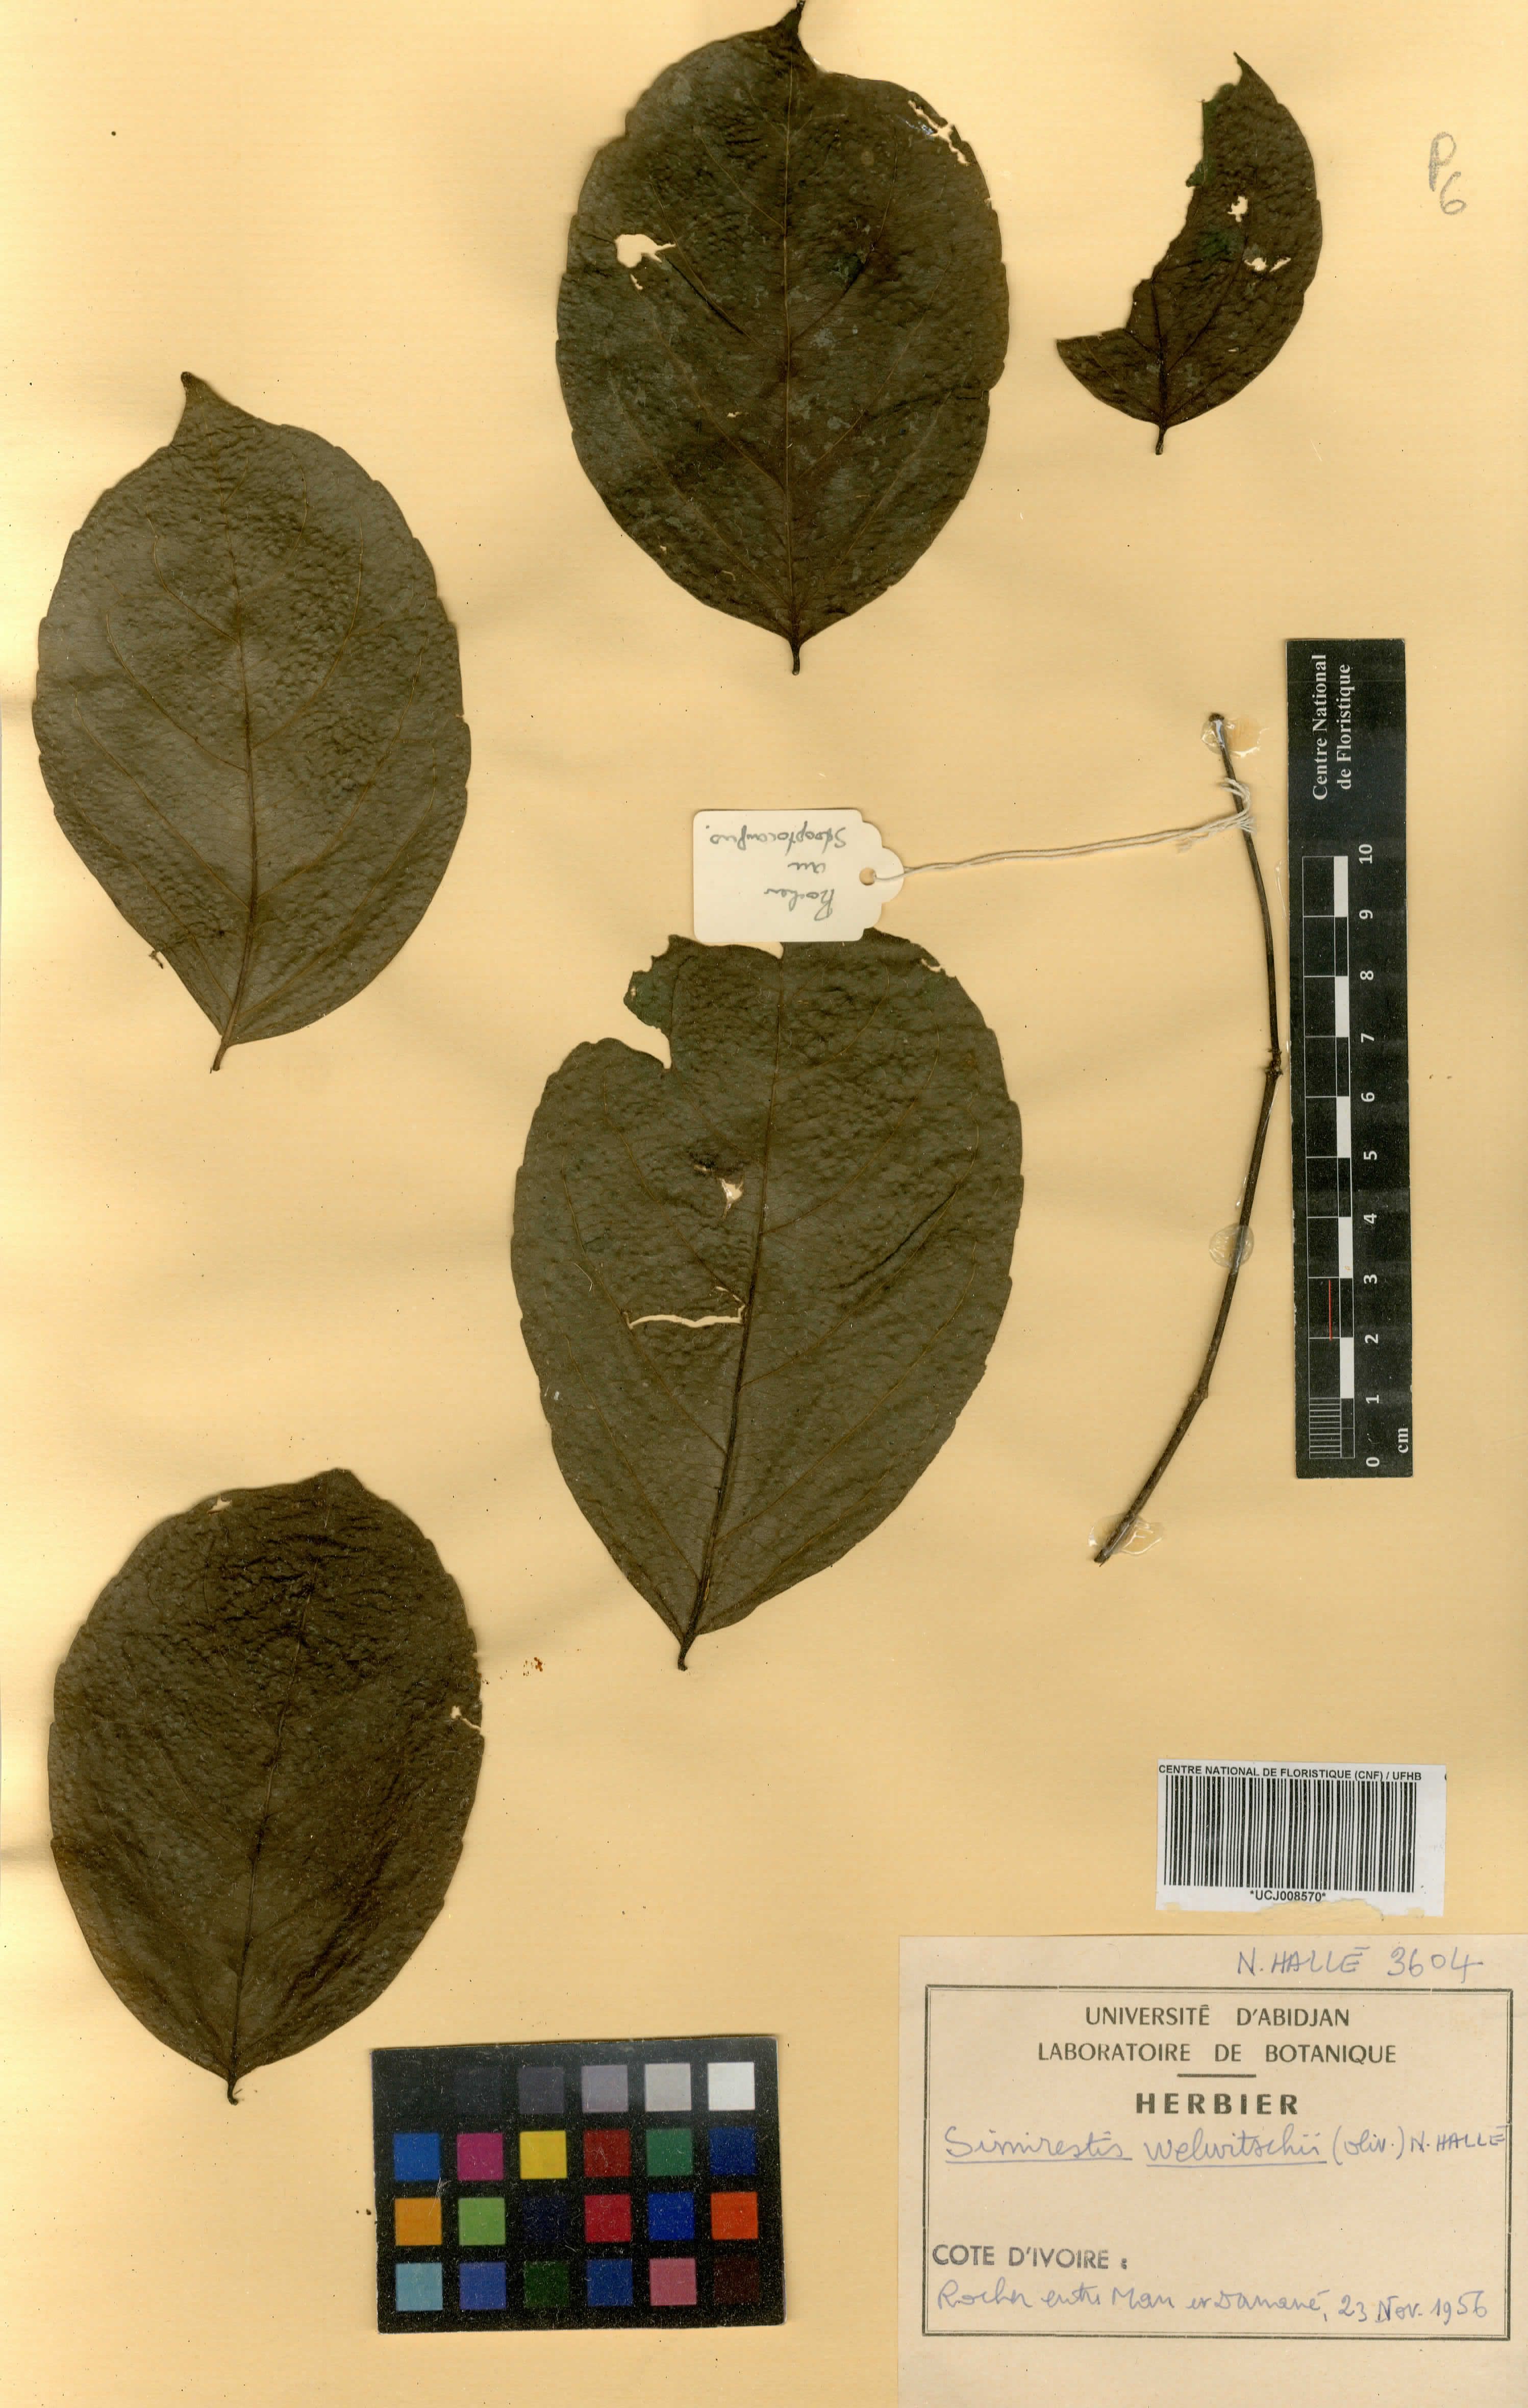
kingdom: Plantae
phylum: Tracheophyta
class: Magnoliopsida
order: Celastrales
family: Celastraceae
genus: Simicratea
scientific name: Simicratea welwitschii
